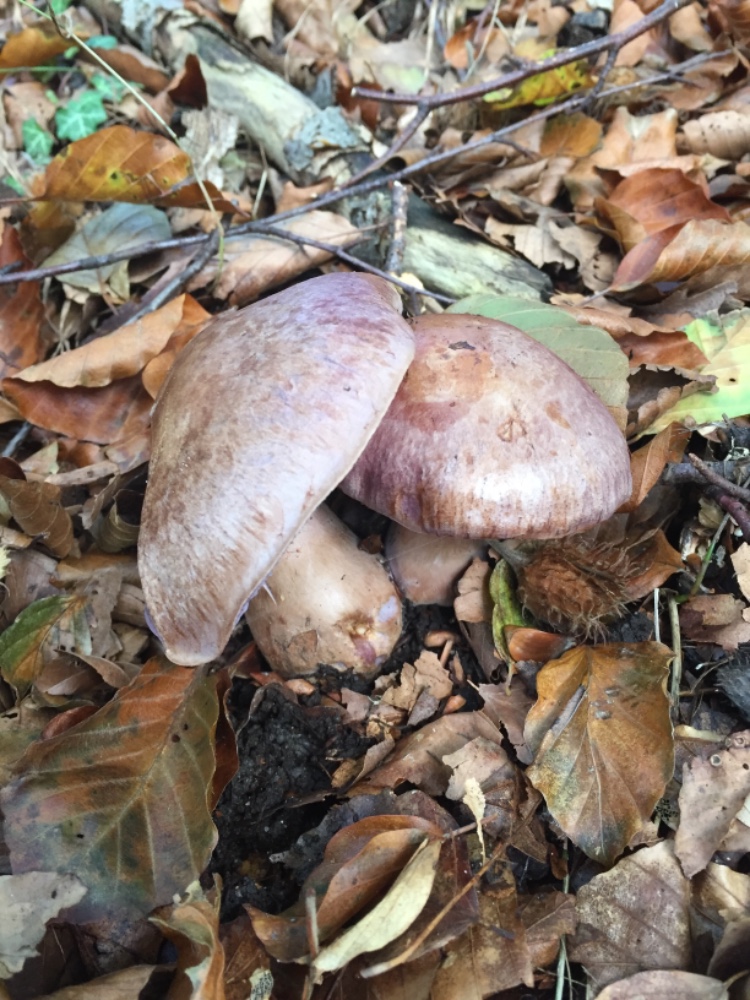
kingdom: Fungi
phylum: Basidiomycota
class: Agaricomycetes
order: Agaricales
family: Cortinariaceae
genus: Cortinarius
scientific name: Cortinarius variecolor
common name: violetagtig slørhat
